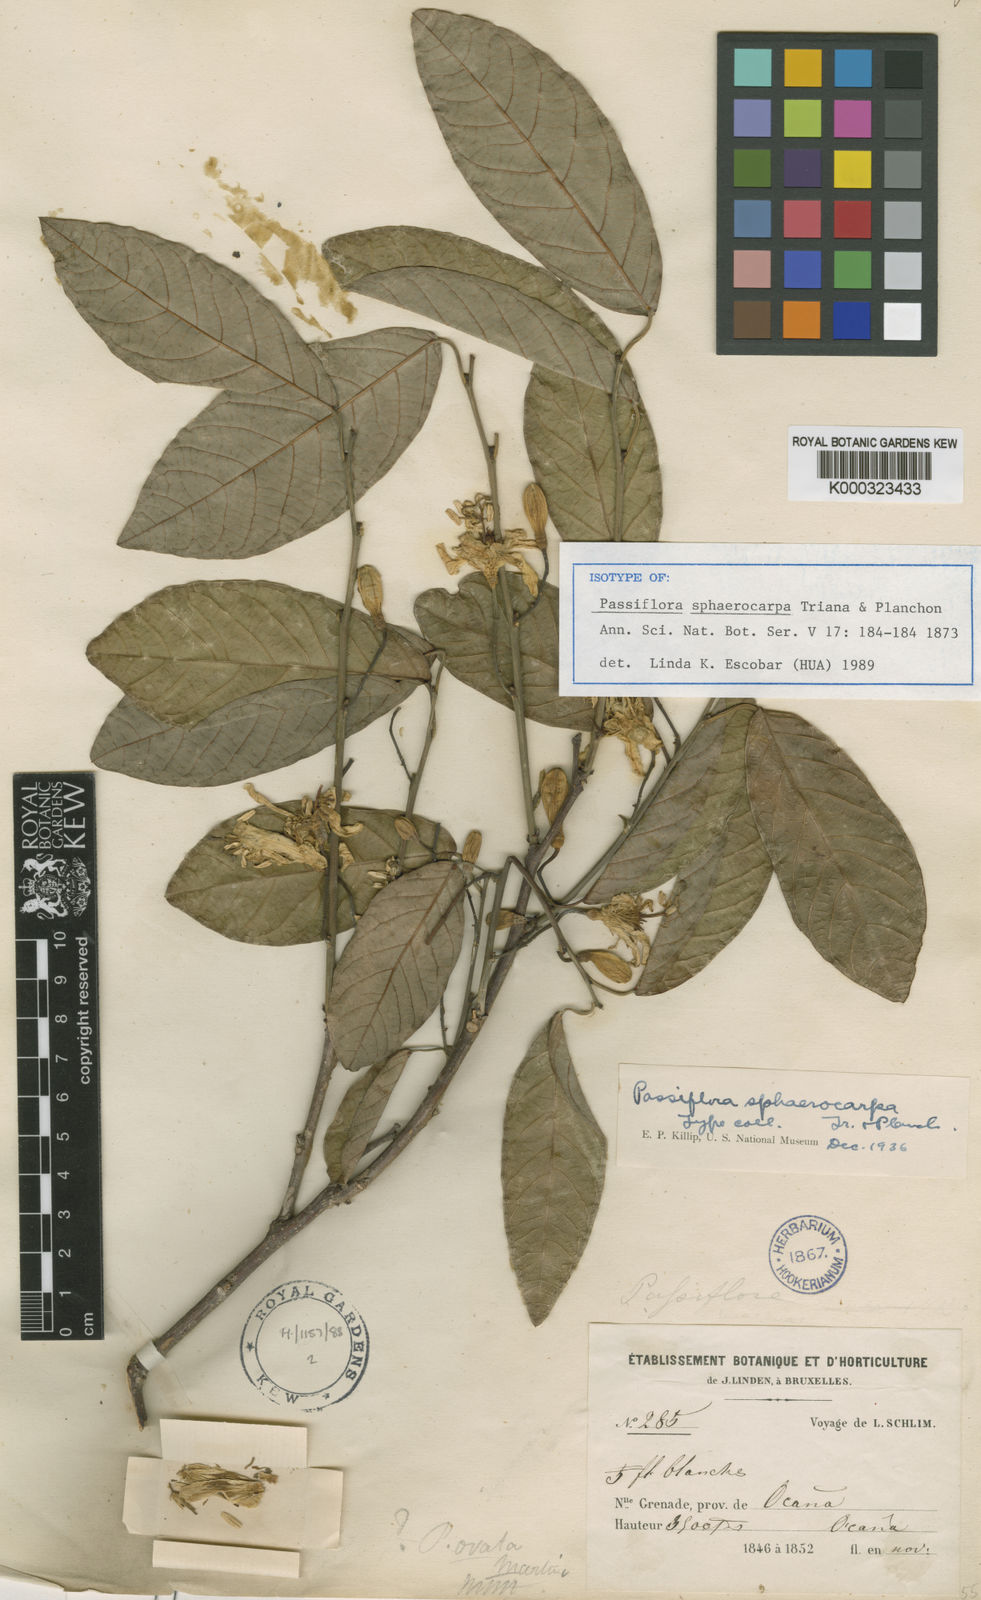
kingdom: Plantae
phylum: Tracheophyta
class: Magnoliopsida
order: Malpighiales
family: Passifloraceae
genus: Passiflora
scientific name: Passiflora sphaerocarpa
